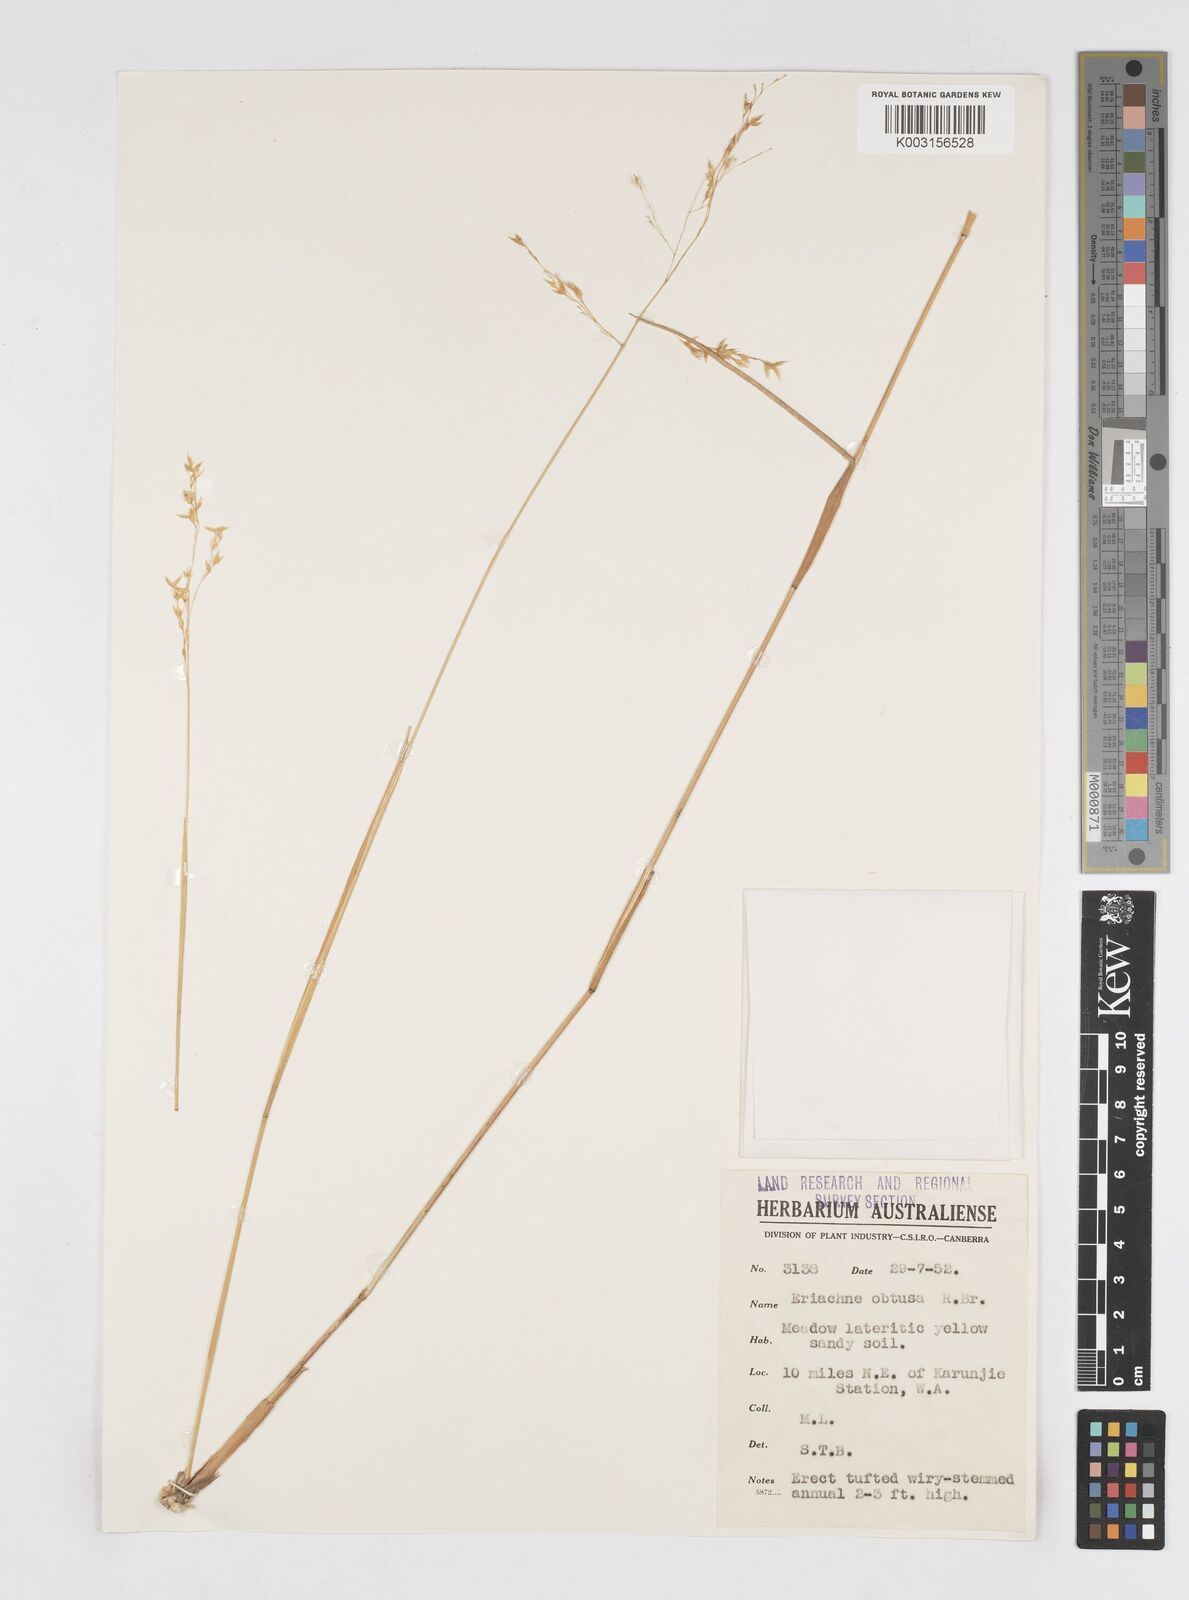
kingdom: Plantae
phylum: Tracheophyta
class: Liliopsida
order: Poales
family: Poaceae
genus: Eriachne
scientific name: Eriachne obtusa
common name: Northern wanderrie grass
